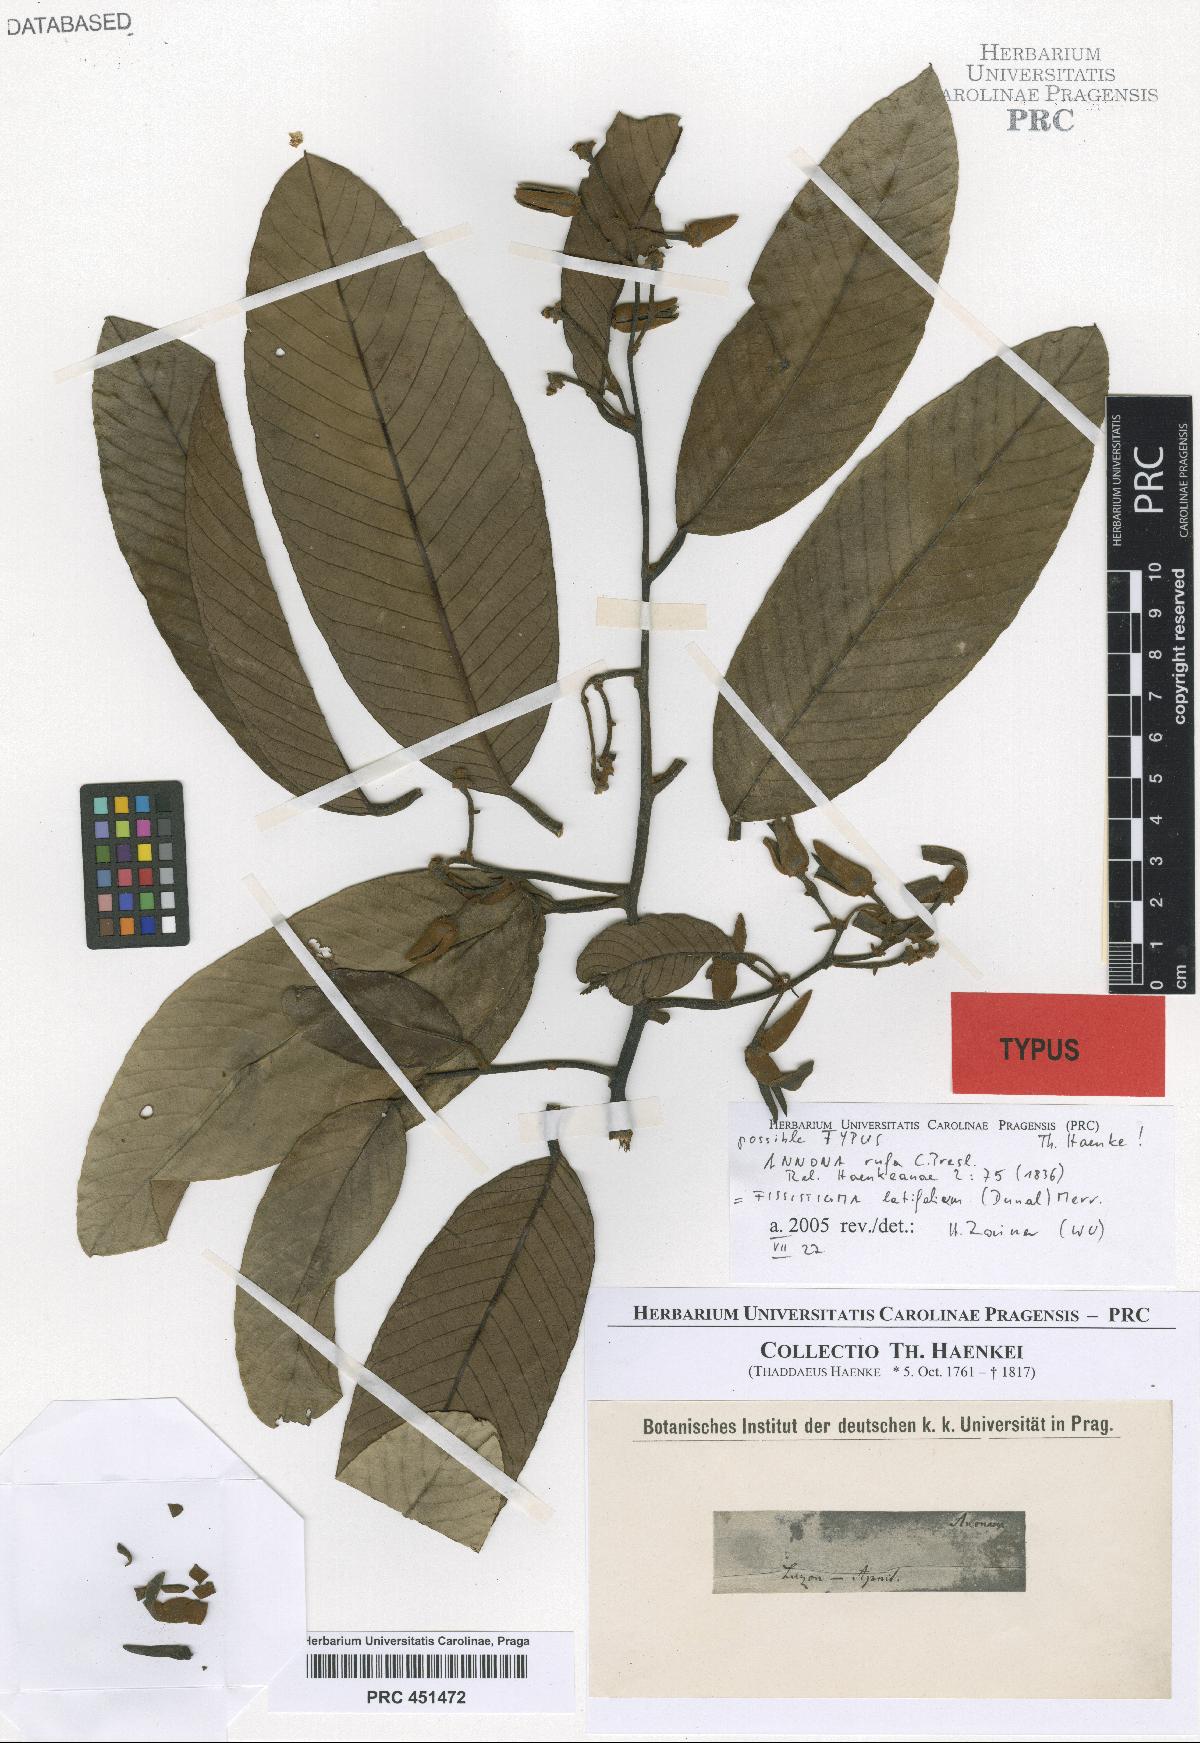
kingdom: Plantae
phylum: Tracheophyta
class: Magnoliopsida
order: Magnoliales
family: Annonaceae
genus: Fissistigma
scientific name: Fissistigma latifolium
